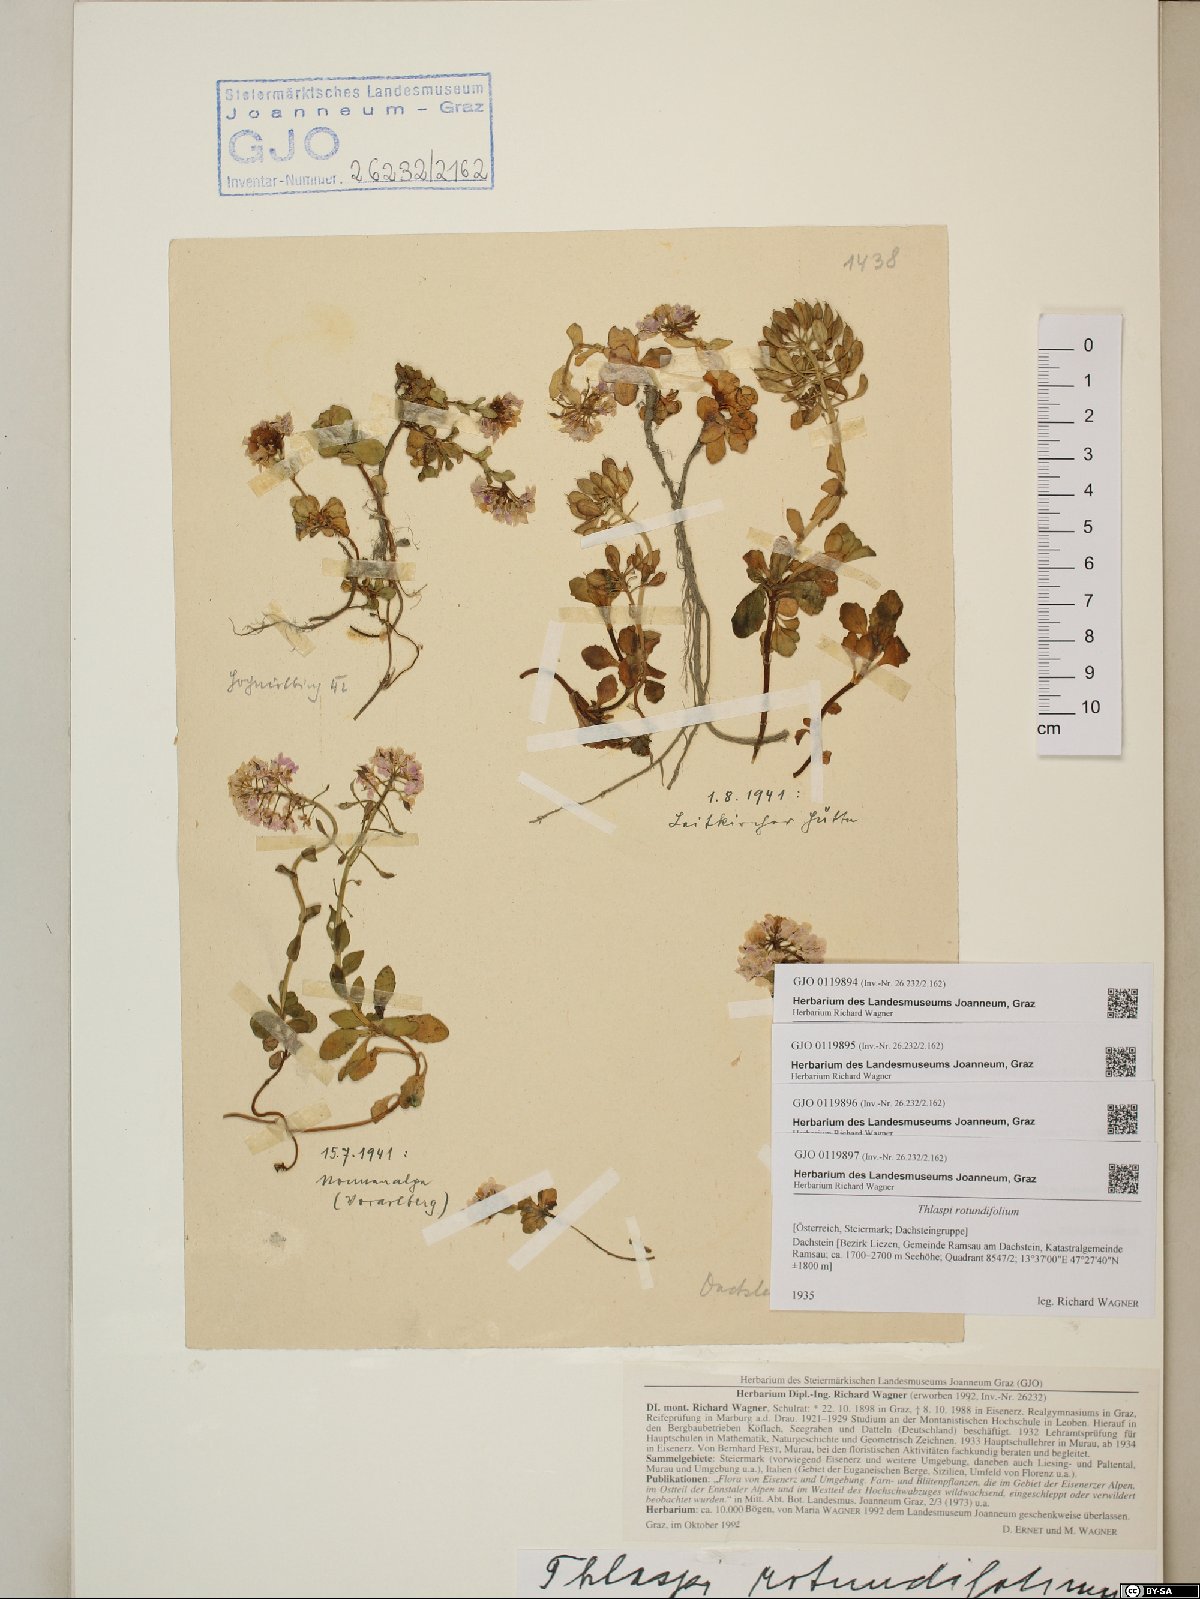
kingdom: Plantae
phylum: Tracheophyta
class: Magnoliopsida
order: Brassicales
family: Brassicaceae
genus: Noccaea
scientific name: Noccaea rotundifolia
